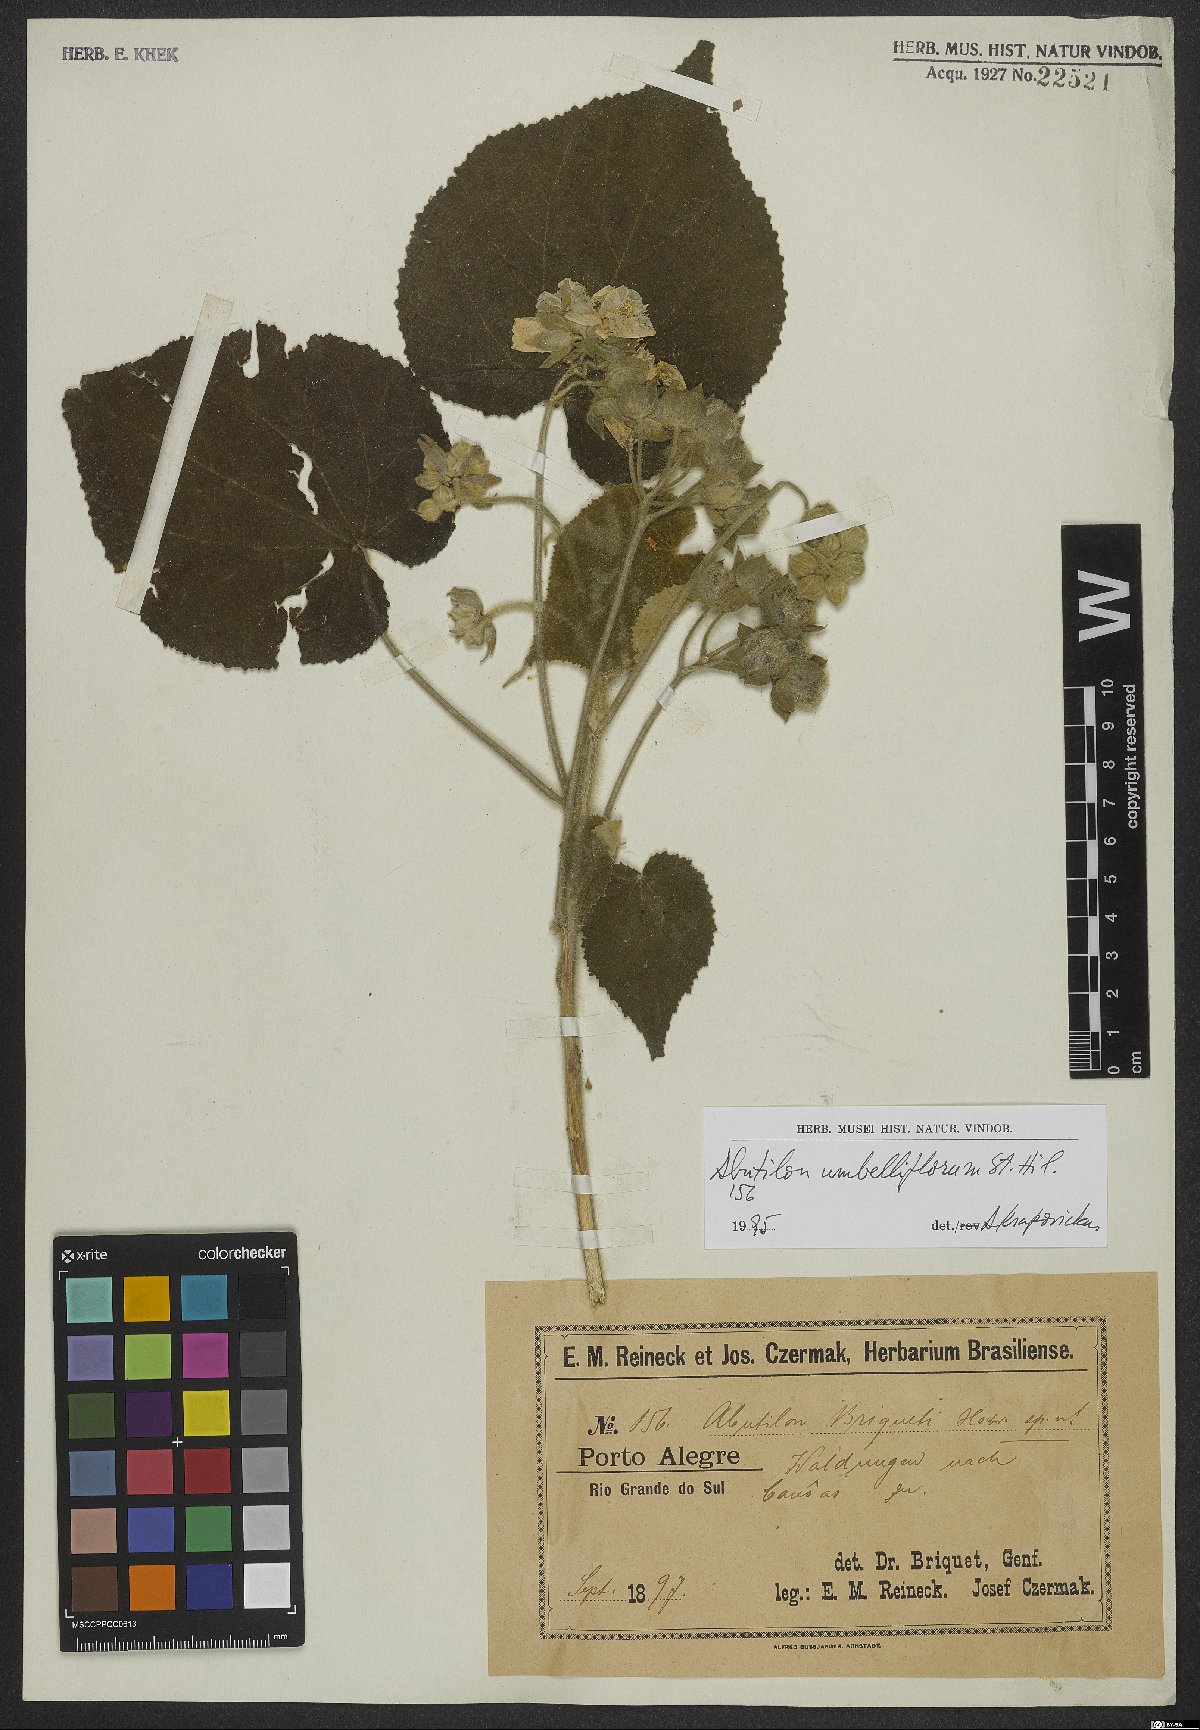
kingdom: Plantae
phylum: Tracheophyta
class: Magnoliopsida
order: Malvales
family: Malvaceae
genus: Abutilon
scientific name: Abutilon umbelliflorum
